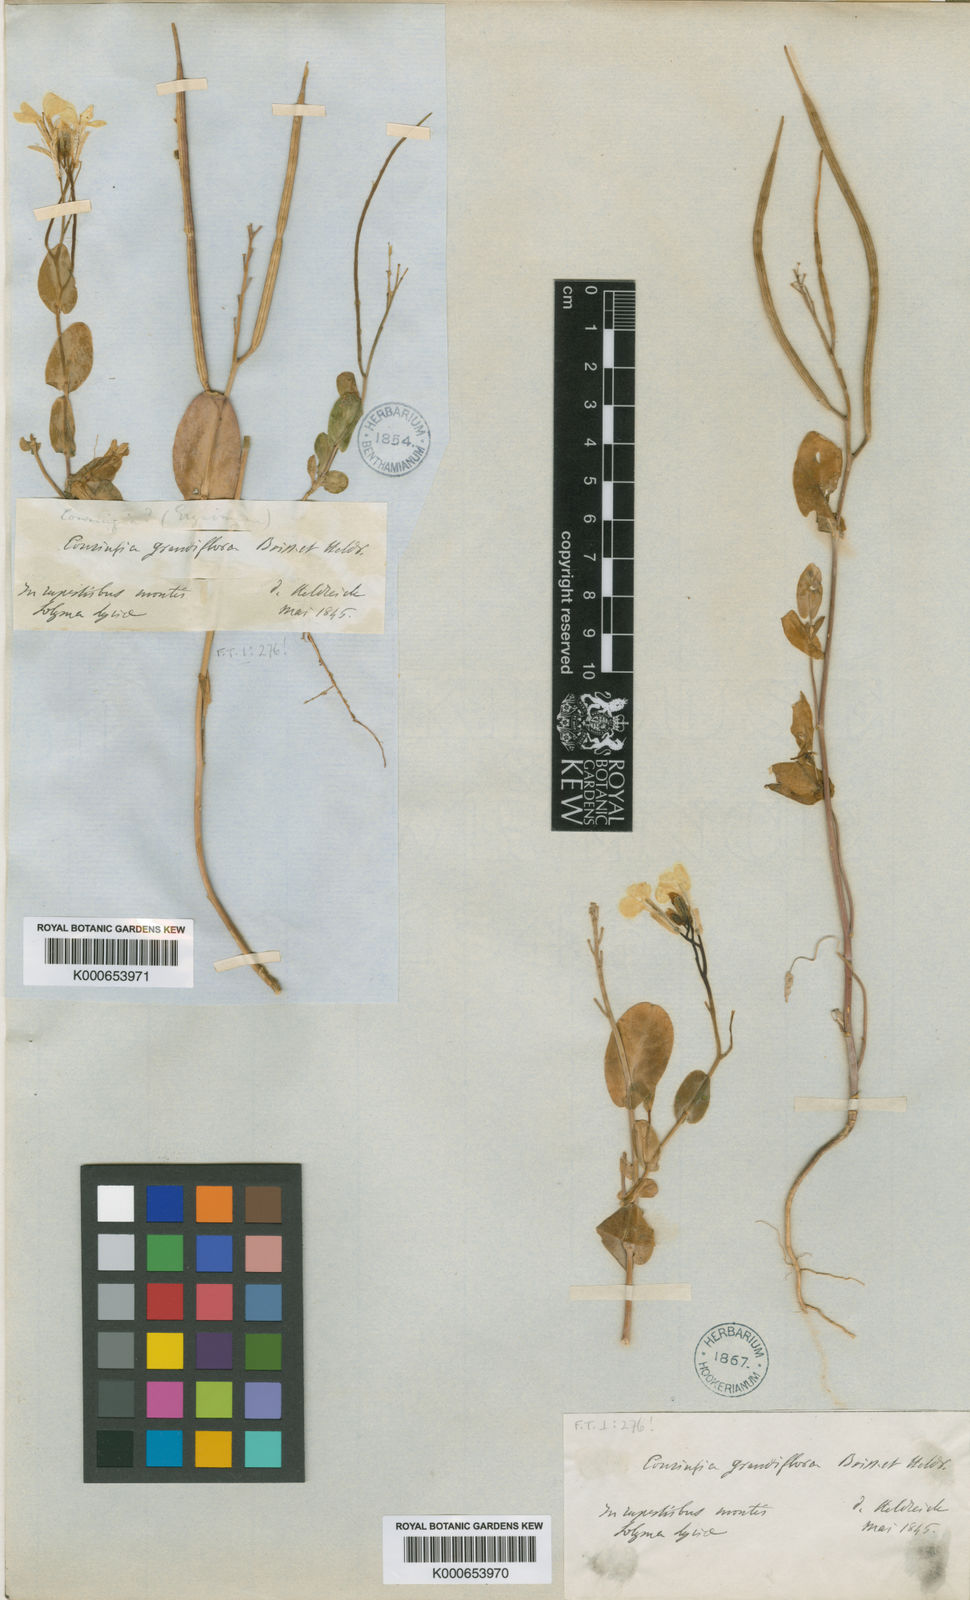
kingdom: Plantae
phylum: Tracheophyta
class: Magnoliopsida
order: Brassicales
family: Brassicaceae
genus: Conringia
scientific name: Conringia grandiflora
